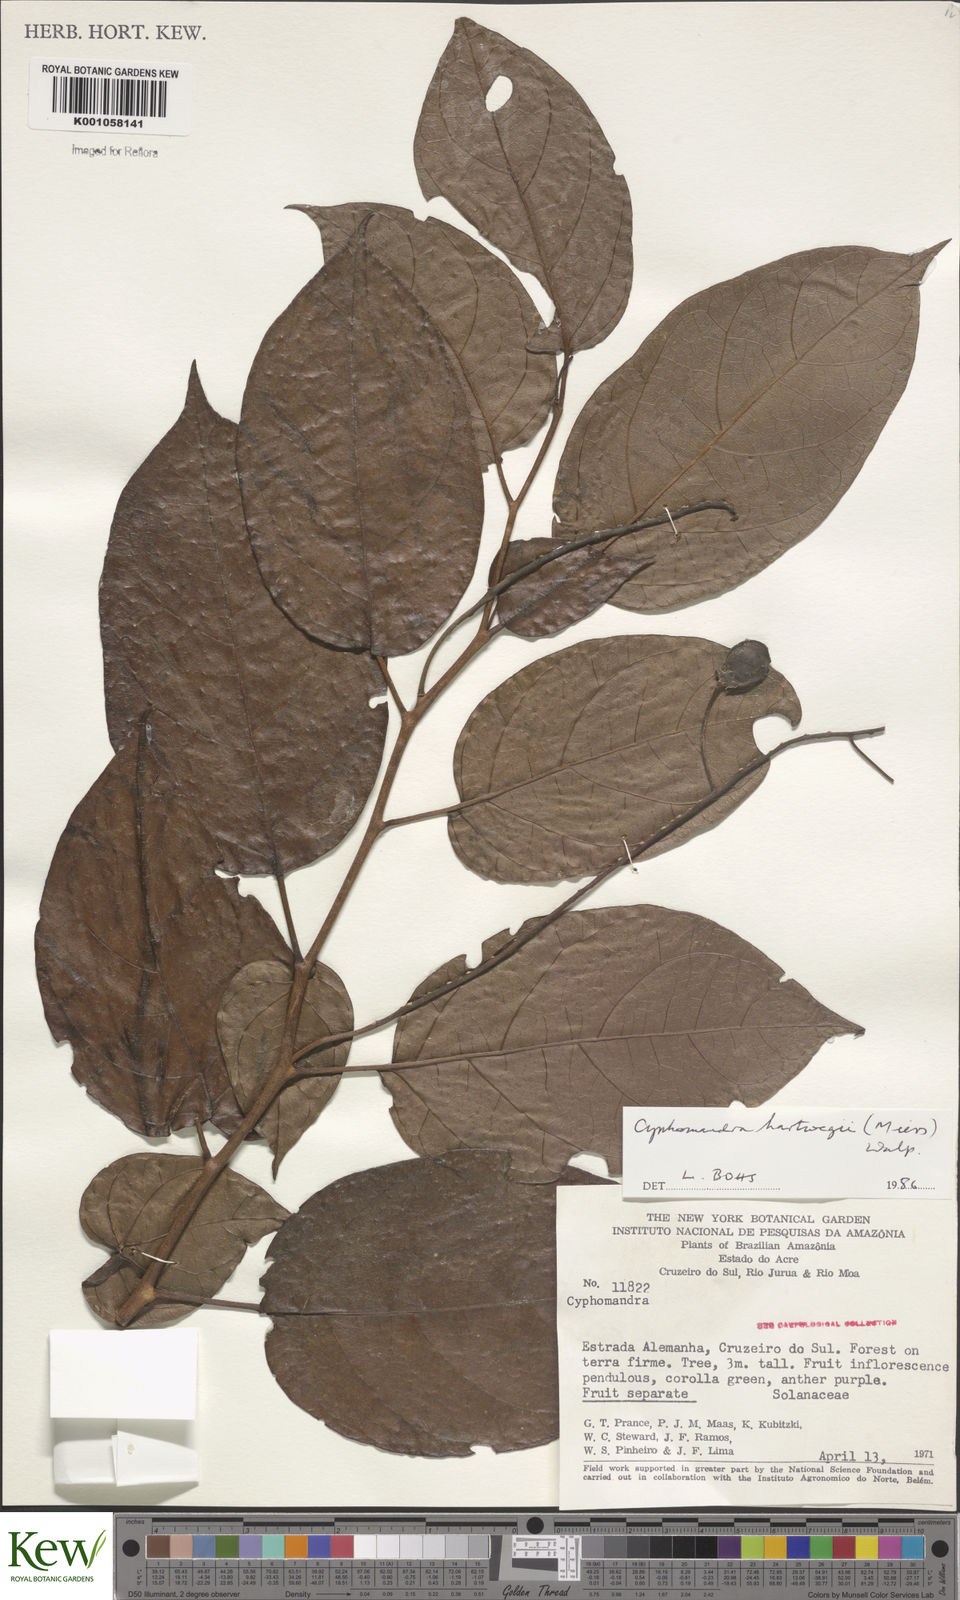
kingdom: Plantae
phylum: Tracheophyta
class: Magnoliopsida
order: Solanales
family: Solanaceae
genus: Solanum
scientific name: Solanum splendens
